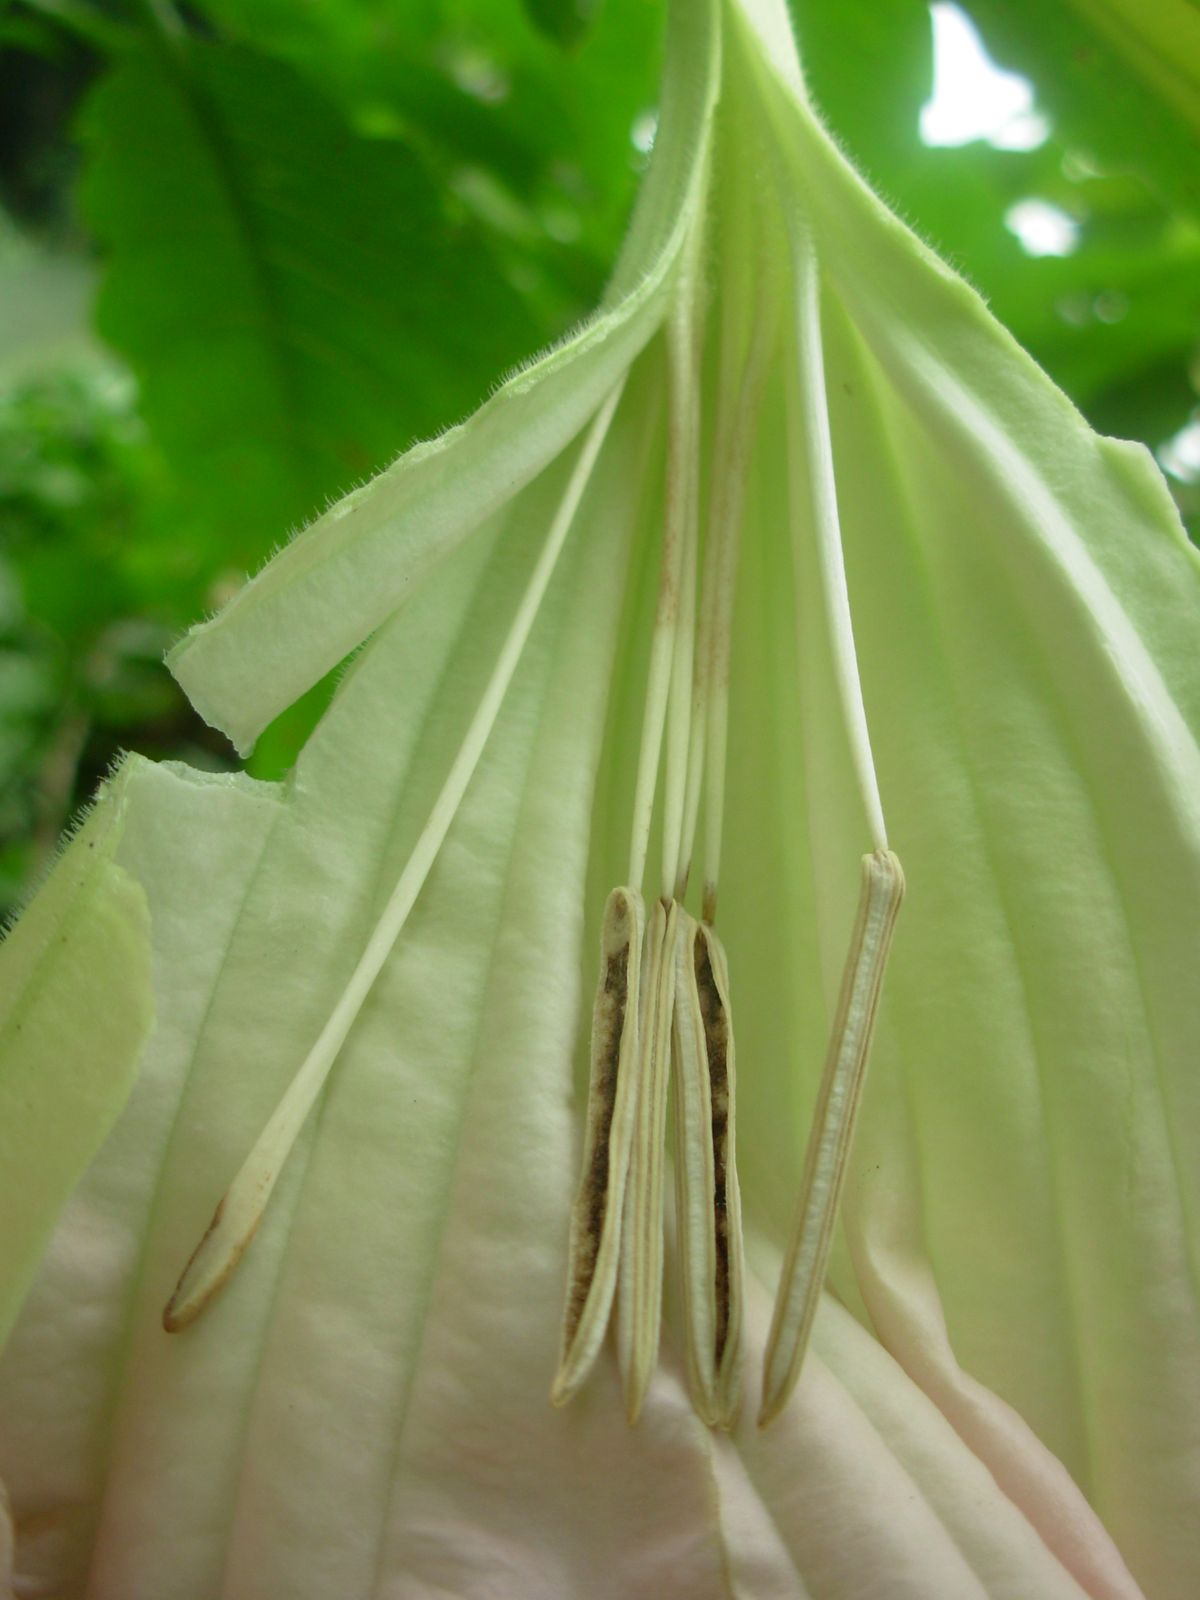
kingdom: Plantae
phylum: Tracheophyta
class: Magnoliopsida
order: Solanales
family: Solanaceae
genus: Brugmansia
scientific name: Brugmansia suaveolens
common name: Angel's tears
